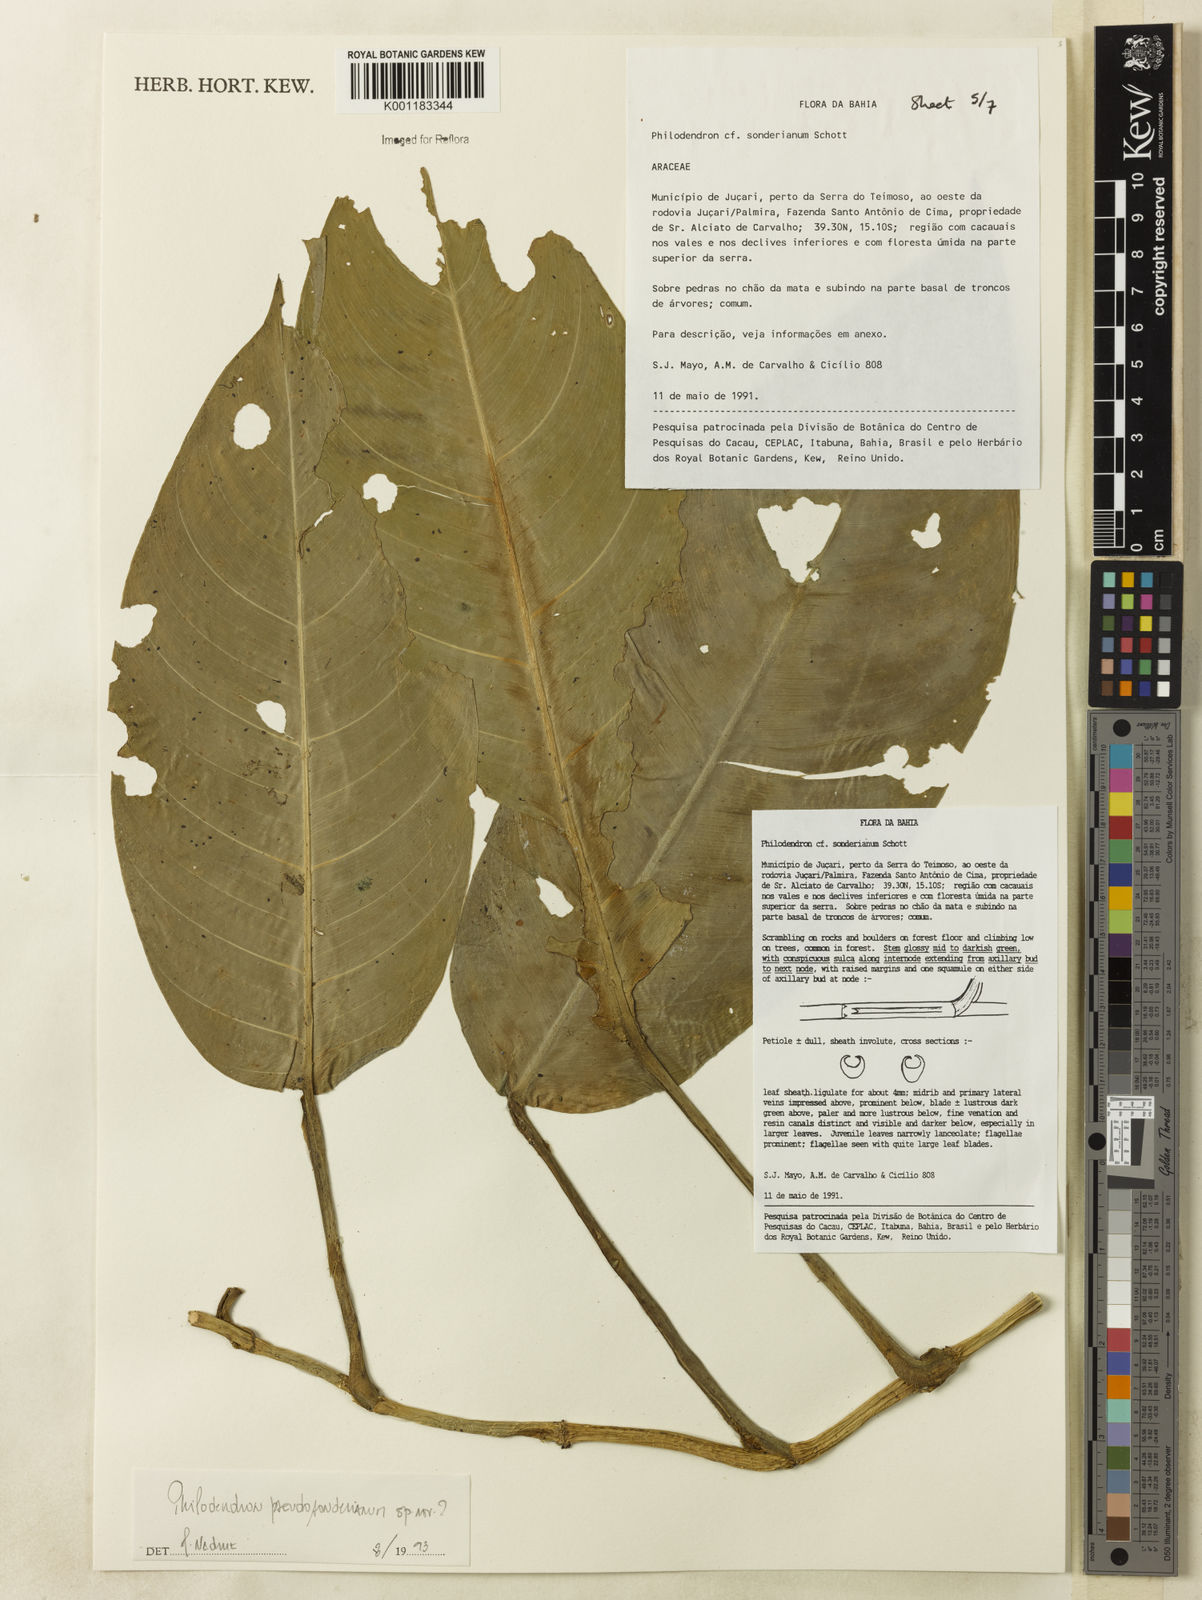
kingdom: Plantae
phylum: Tracheophyta
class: Liliopsida
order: Alismatales
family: Araceae
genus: Philodendron
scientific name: Philodendron
